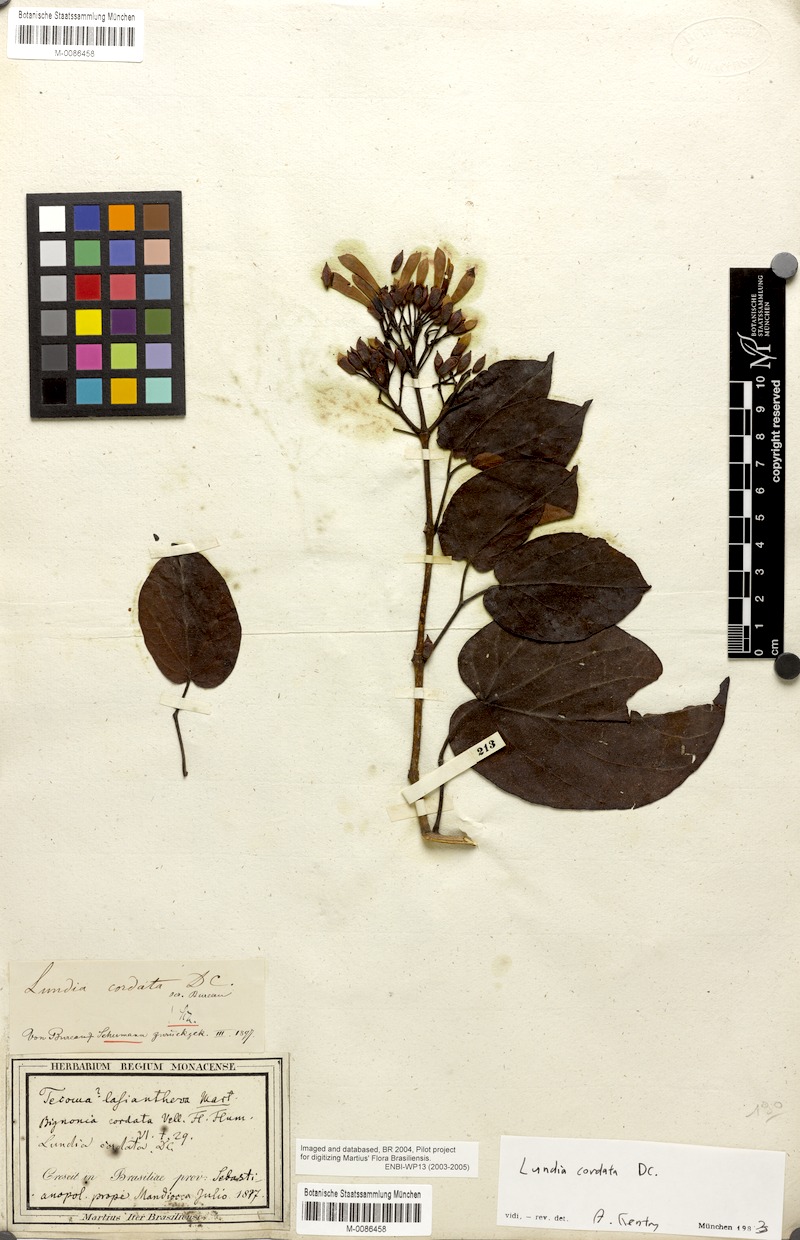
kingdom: Plantae
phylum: Tracheophyta
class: Magnoliopsida
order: Lamiales
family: Bignoniaceae
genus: Lundia
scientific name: Lundia longa
